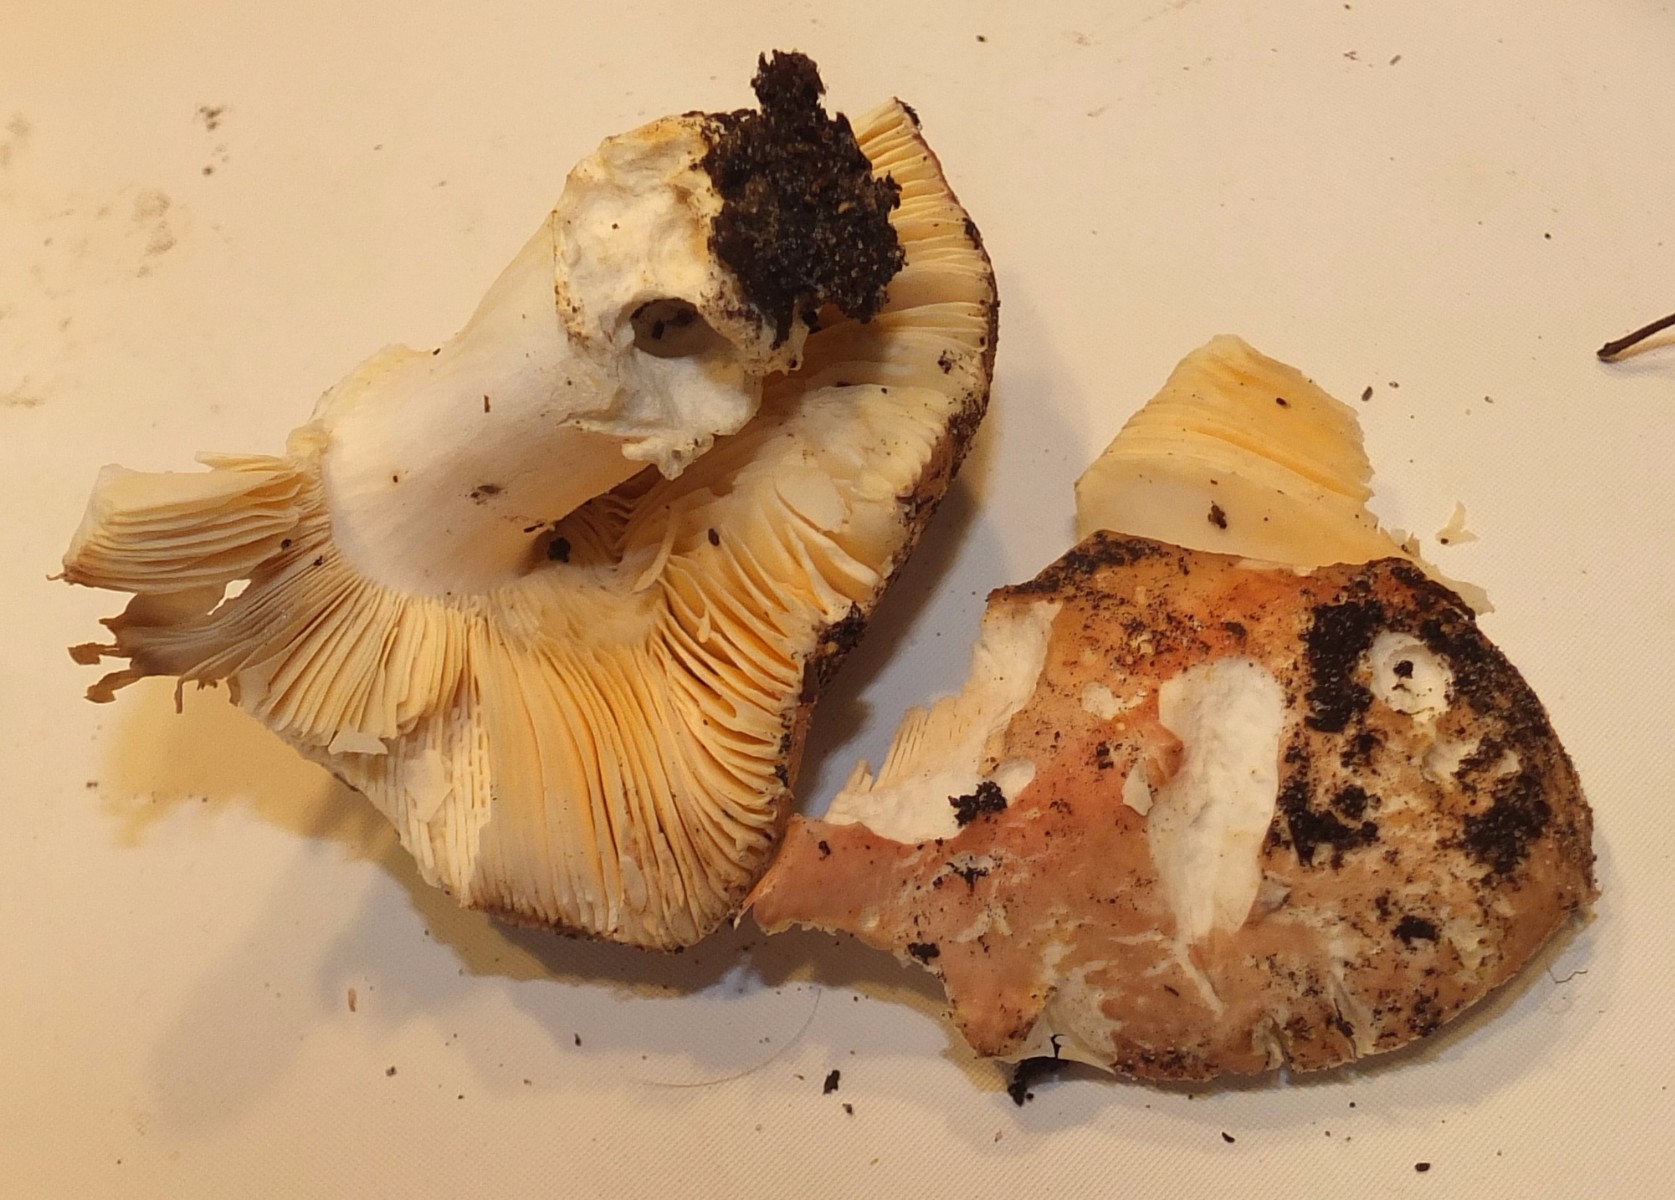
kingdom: Fungi
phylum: Basidiomycota
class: Agaricomycetes
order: Russulales
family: Russulaceae
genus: Russula
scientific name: Russula
